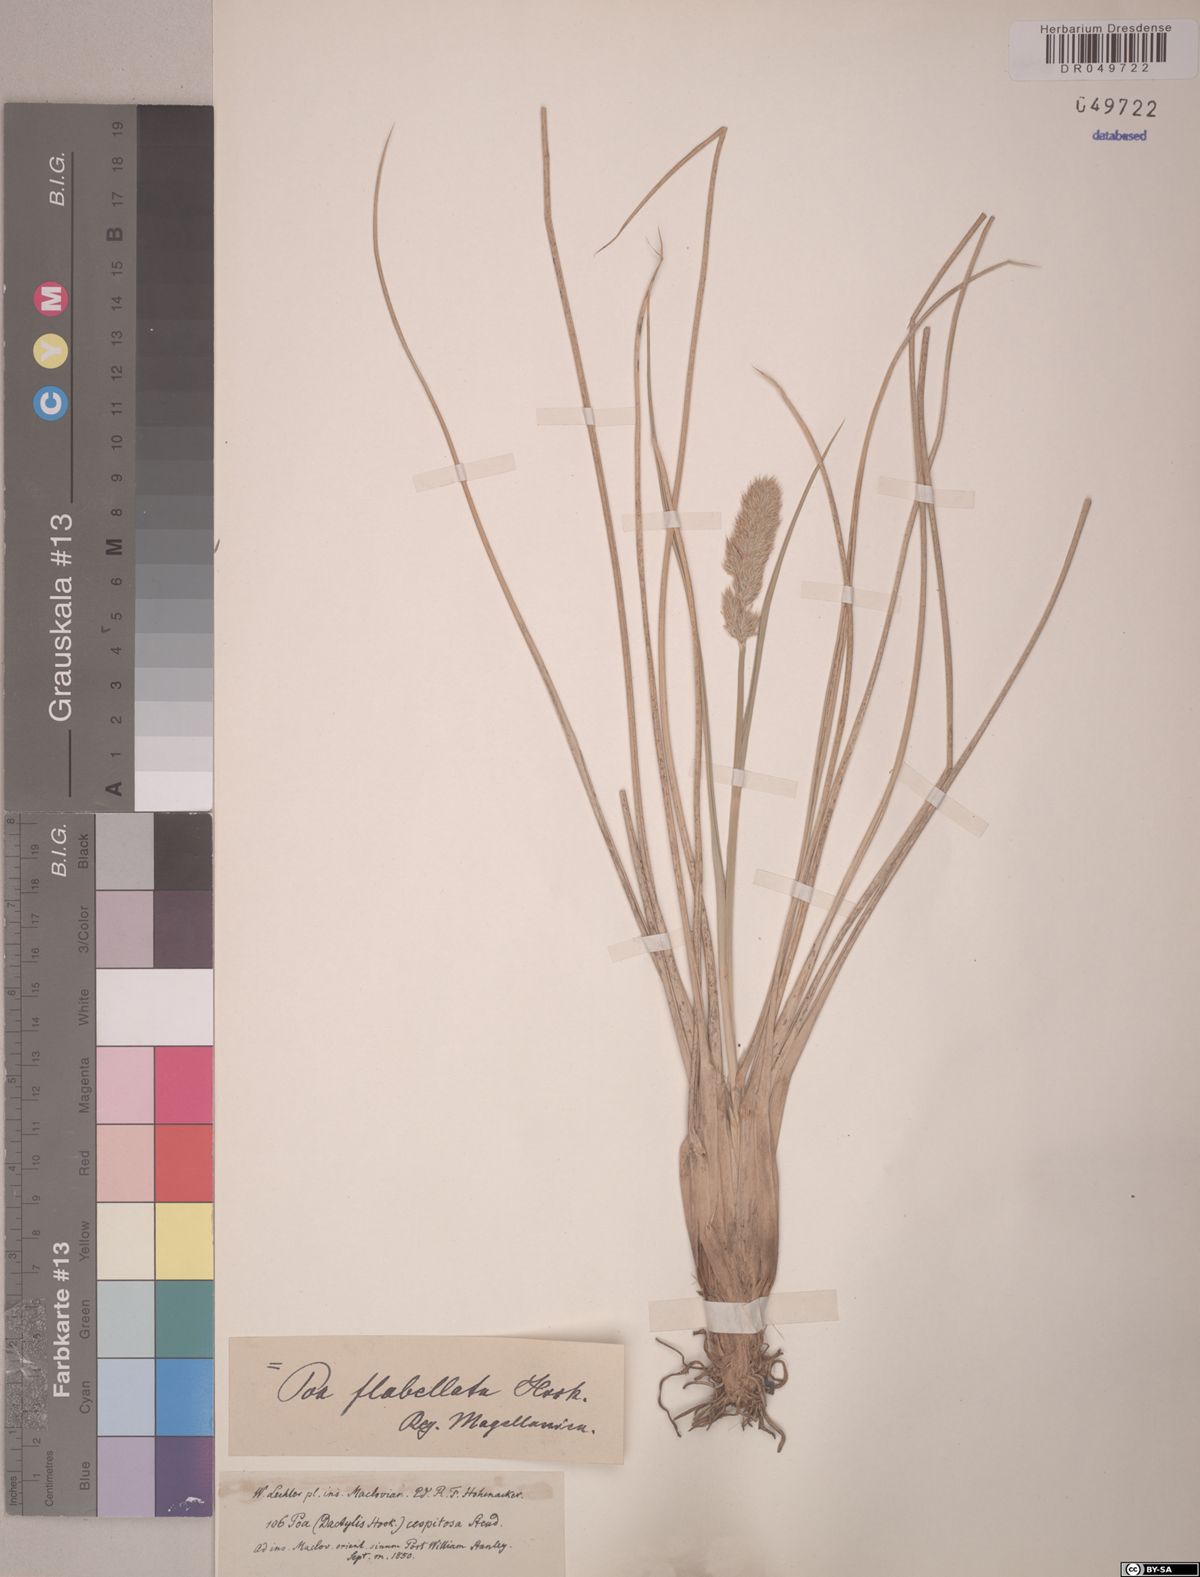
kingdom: Plantae
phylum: Tracheophyta
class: Liliopsida
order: Poales
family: Poaceae
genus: Poa
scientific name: Poa flabellata
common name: Tussac-grass
